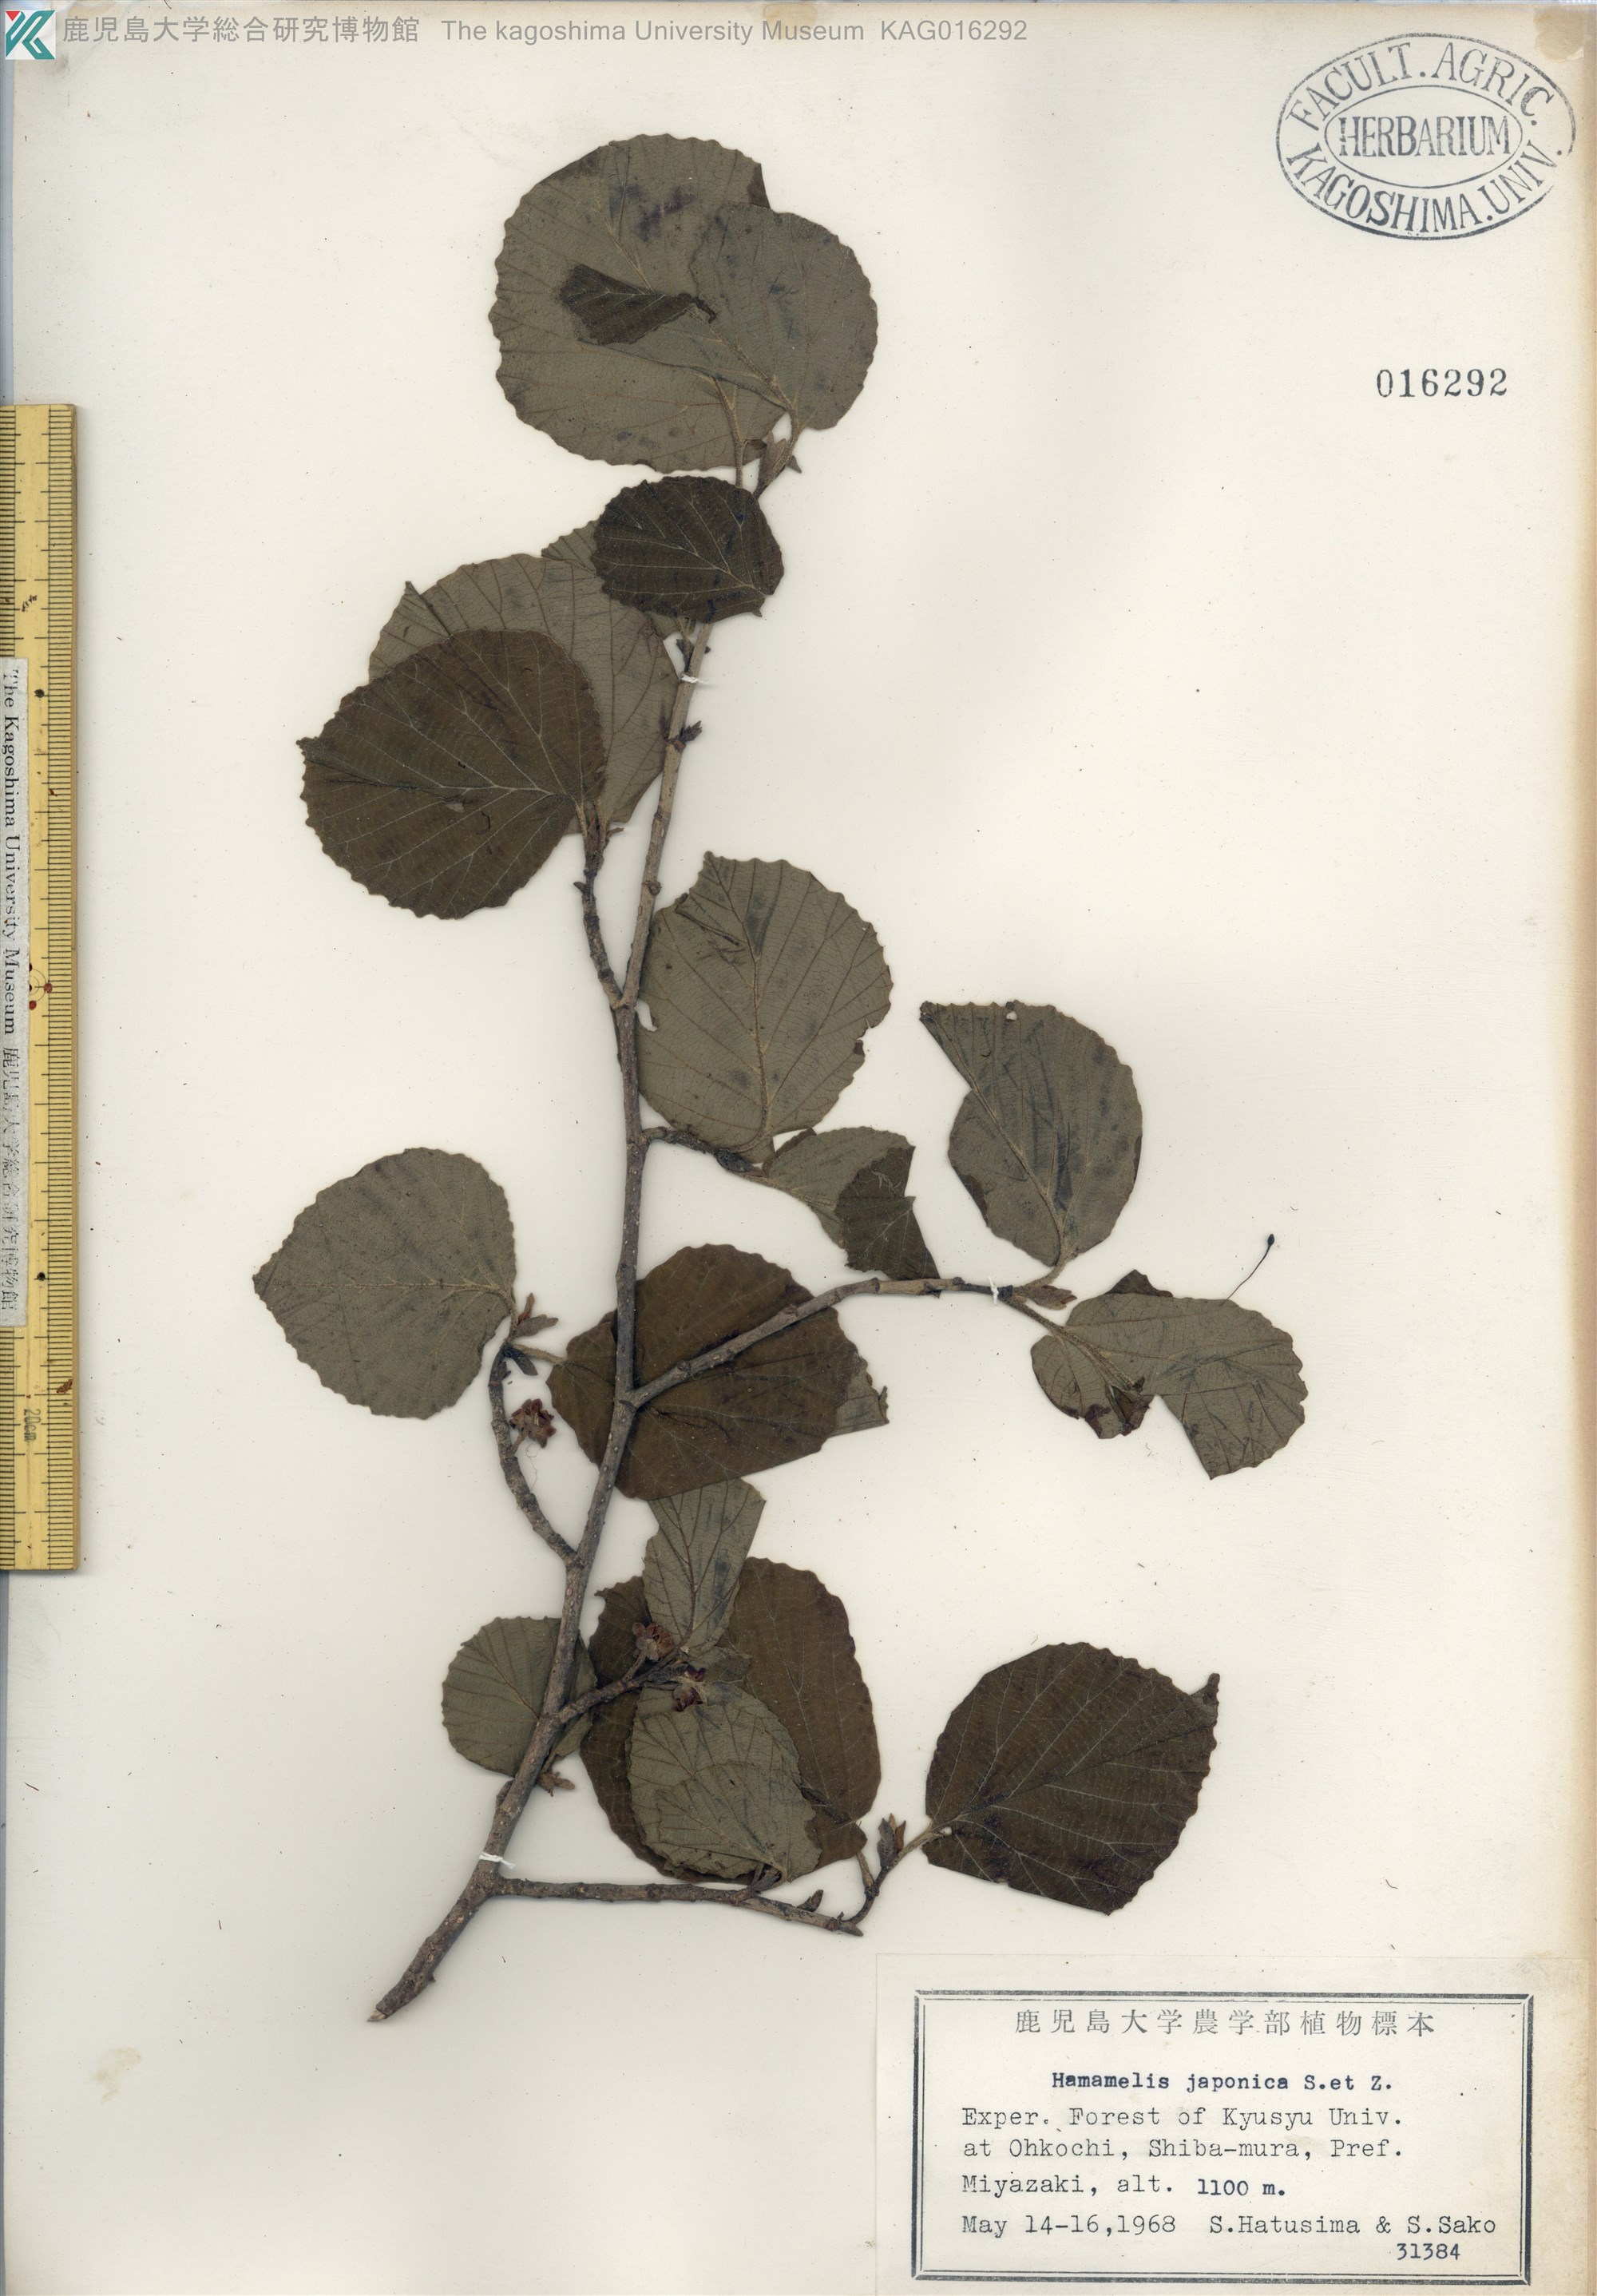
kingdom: Plantae
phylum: Tracheophyta
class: Magnoliopsida
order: Saxifragales
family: Hamamelidaceae
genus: Hamamelis
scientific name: Hamamelis japonica
